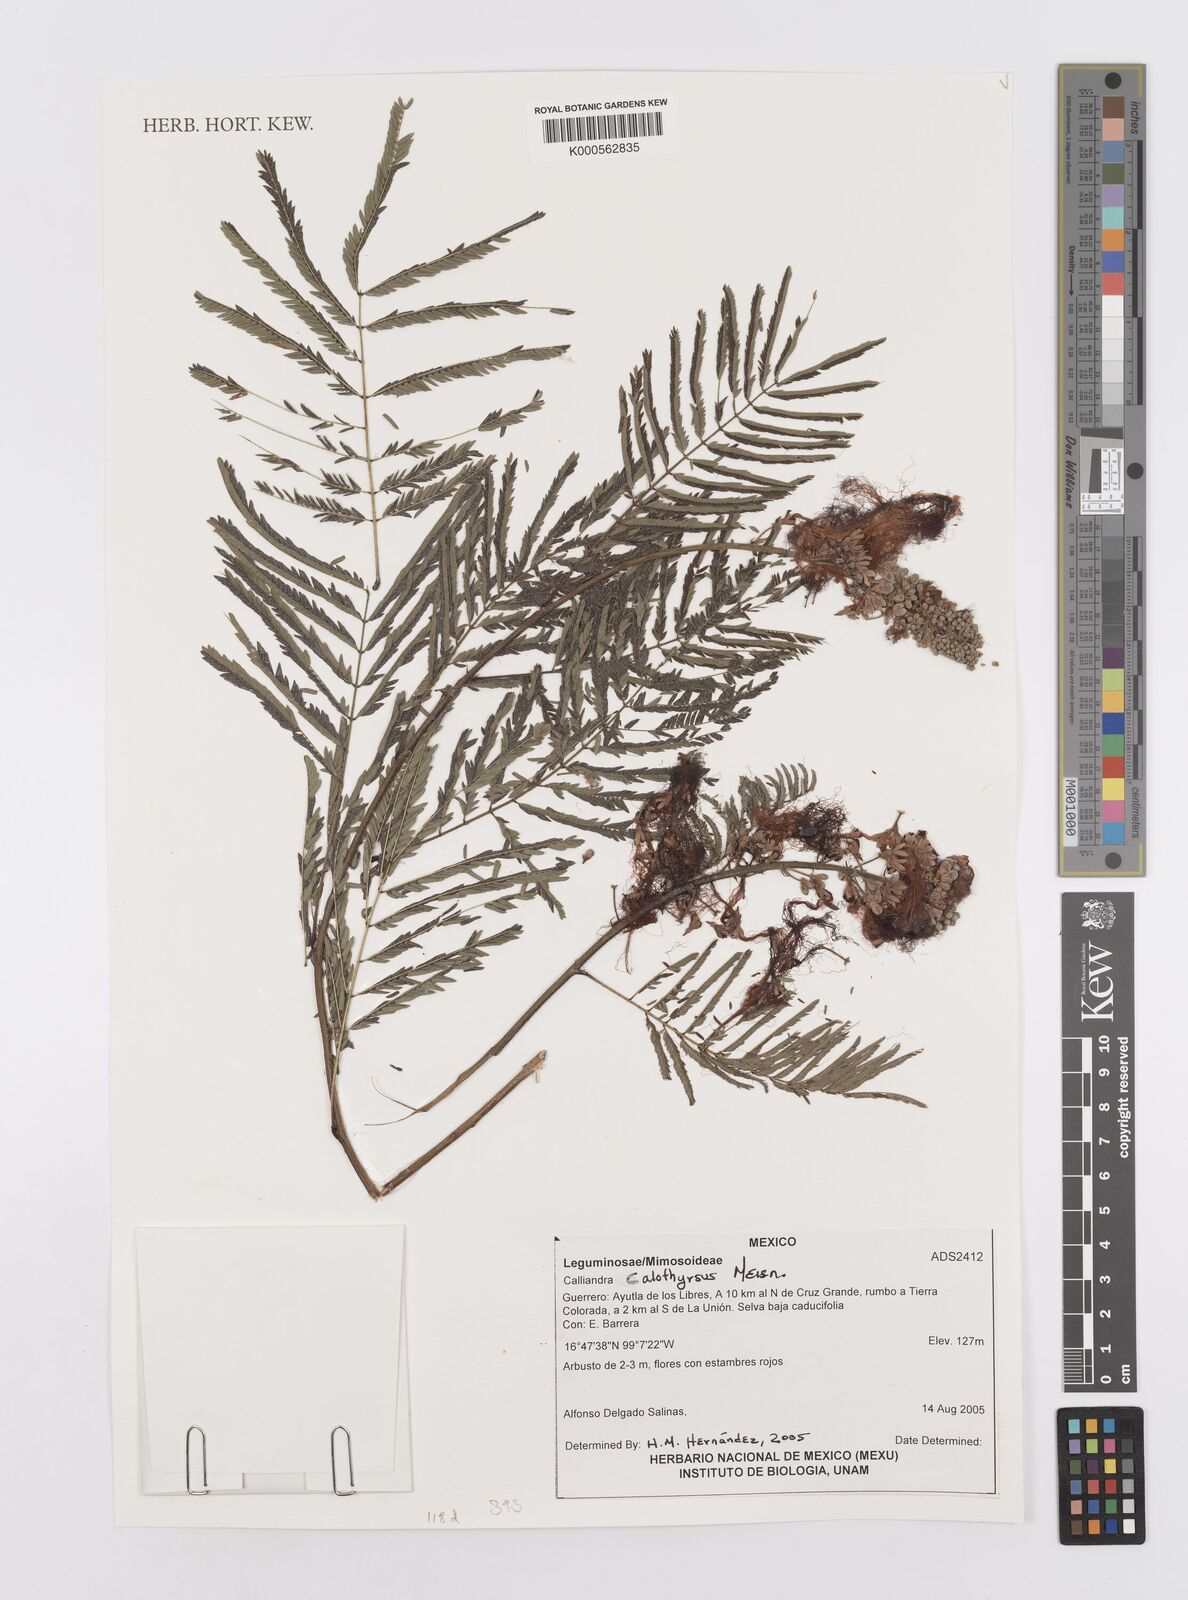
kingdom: Plantae
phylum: Tracheophyta
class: Magnoliopsida
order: Fabales
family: Fabaceae
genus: Calliandra
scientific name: Calliandra houstoniana
